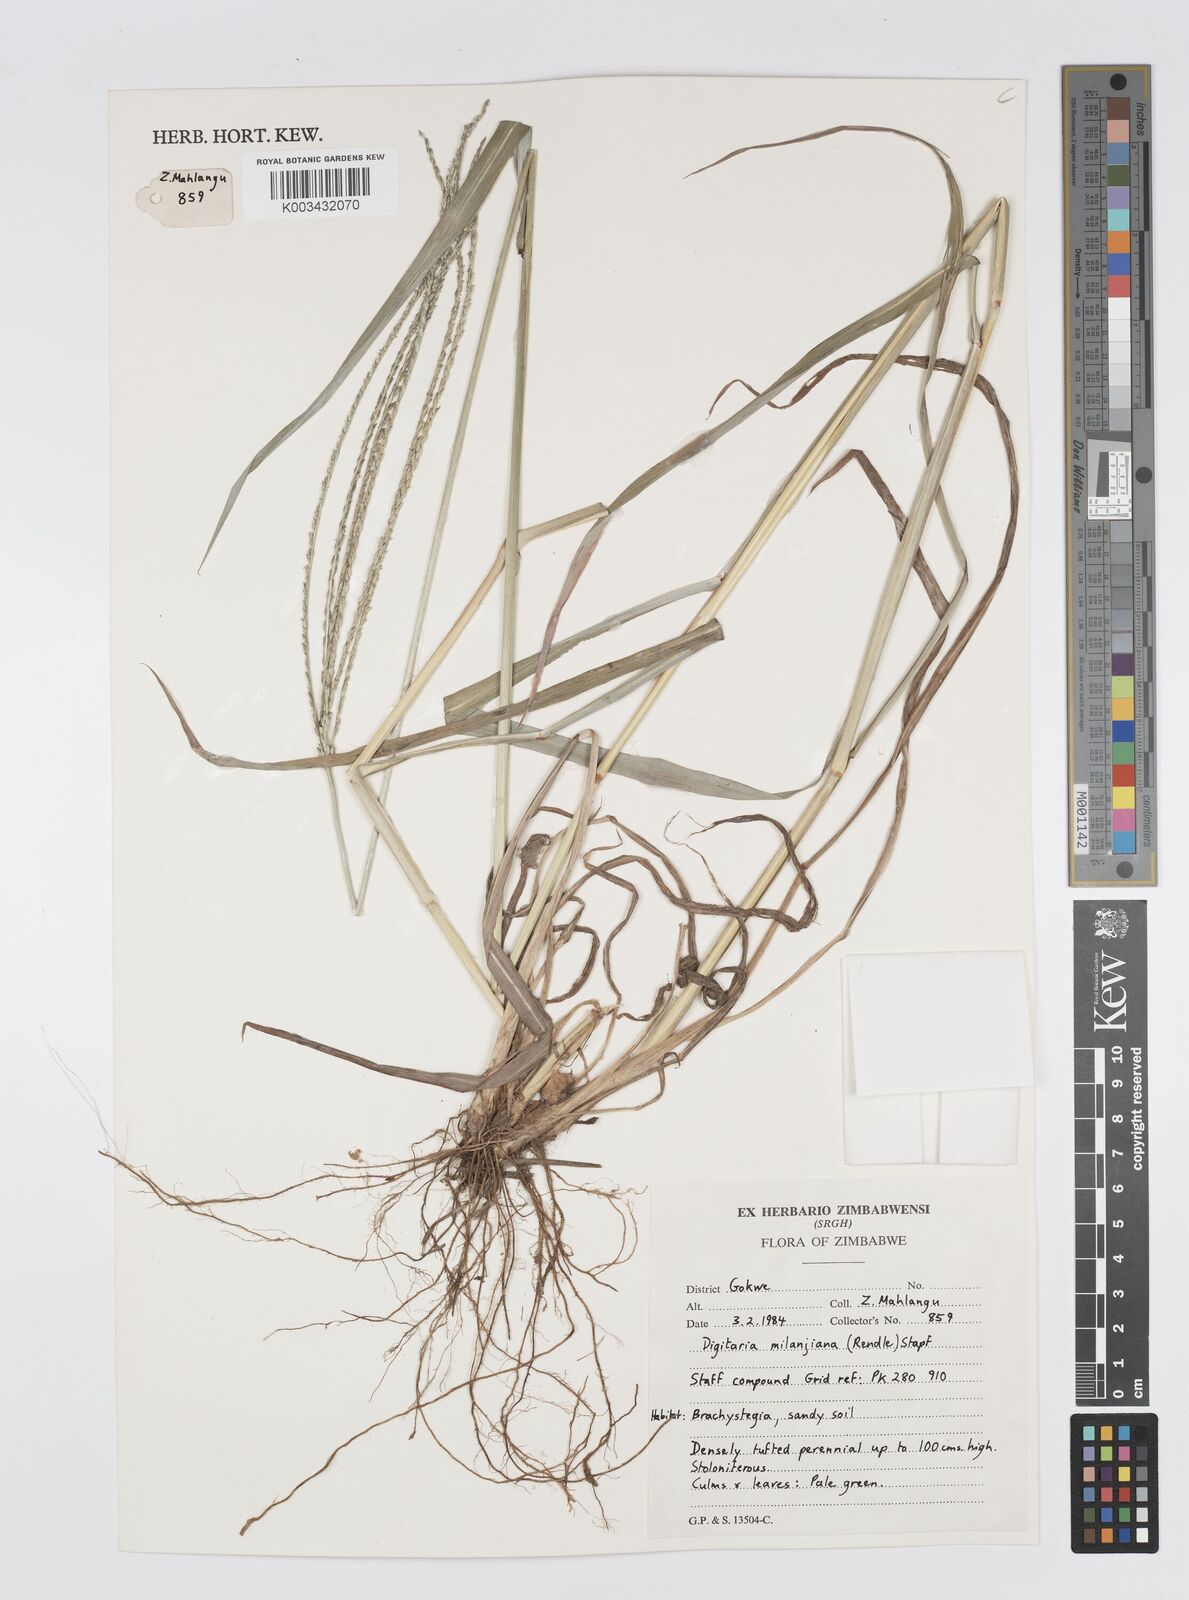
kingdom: Plantae
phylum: Tracheophyta
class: Liliopsida
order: Poales
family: Poaceae
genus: Digitaria
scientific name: Digitaria milanjiana
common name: Madagascar crabgrass
